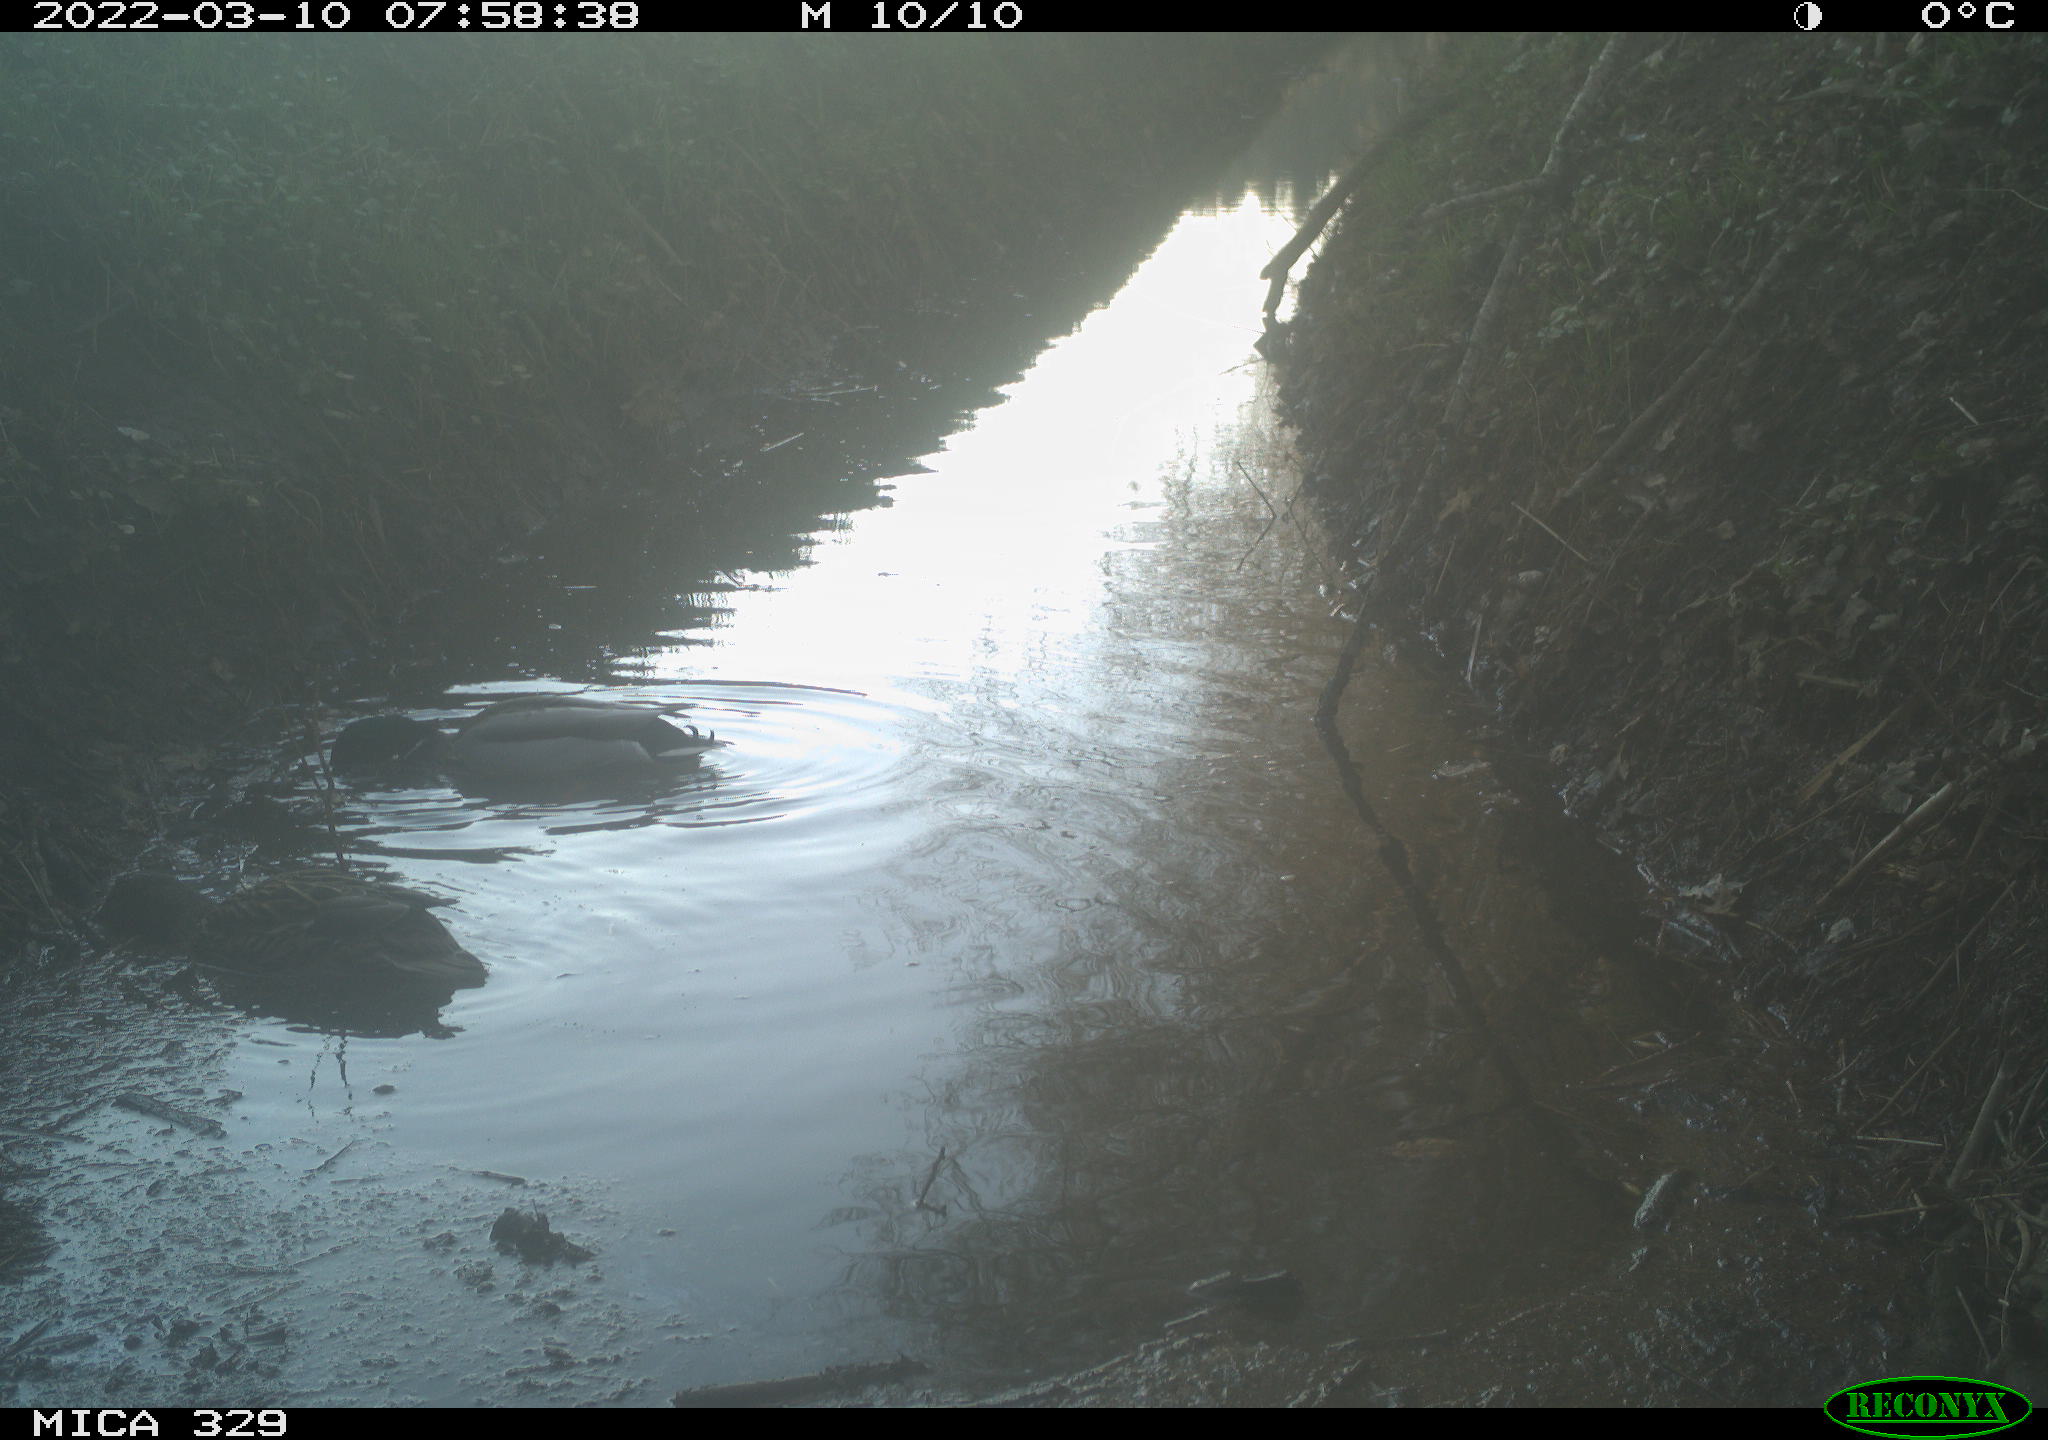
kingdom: Animalia
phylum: Chordata
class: Aves
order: Gruiformes
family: Rallidae
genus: Fulica
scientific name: Fulica atra
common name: Eurasian coot
